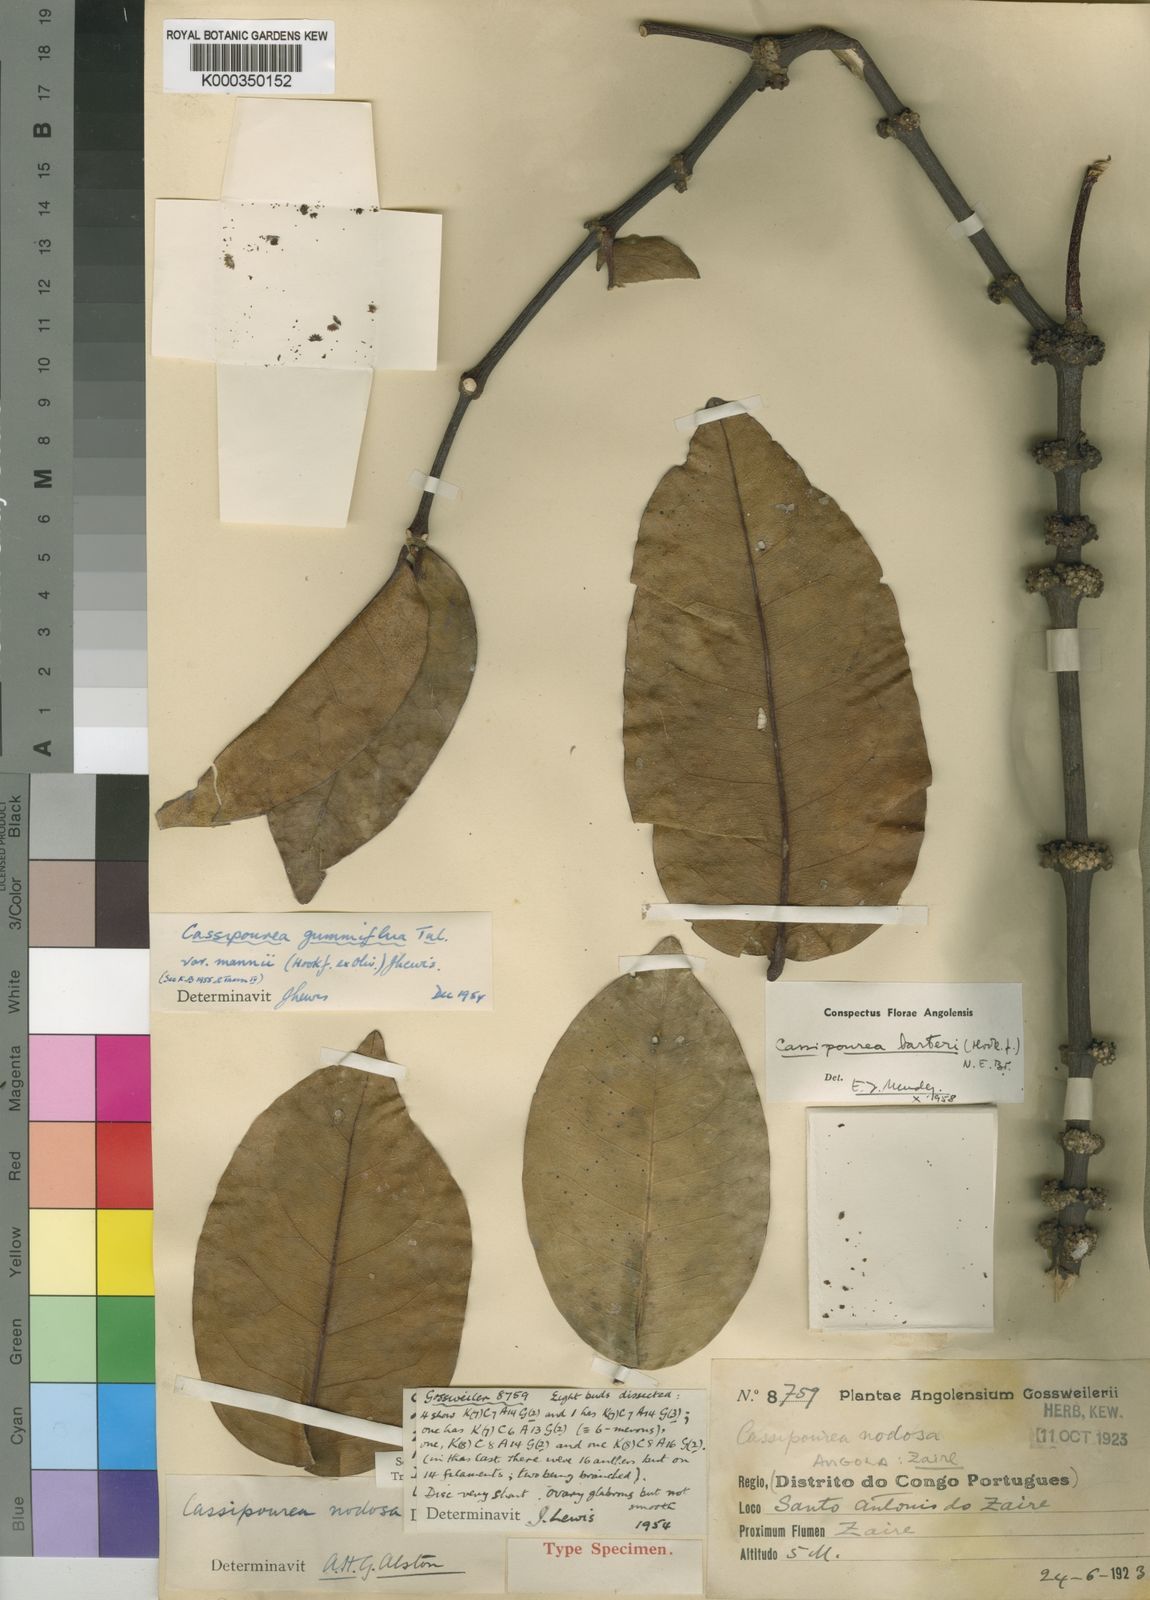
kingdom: Plantae
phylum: Tracheophyta
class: Magnoliopsida
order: Malpighiales
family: Rhizophoraceae
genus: Cassipourea
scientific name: Cassipourea gummiflua
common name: Large-leaved onionwood
